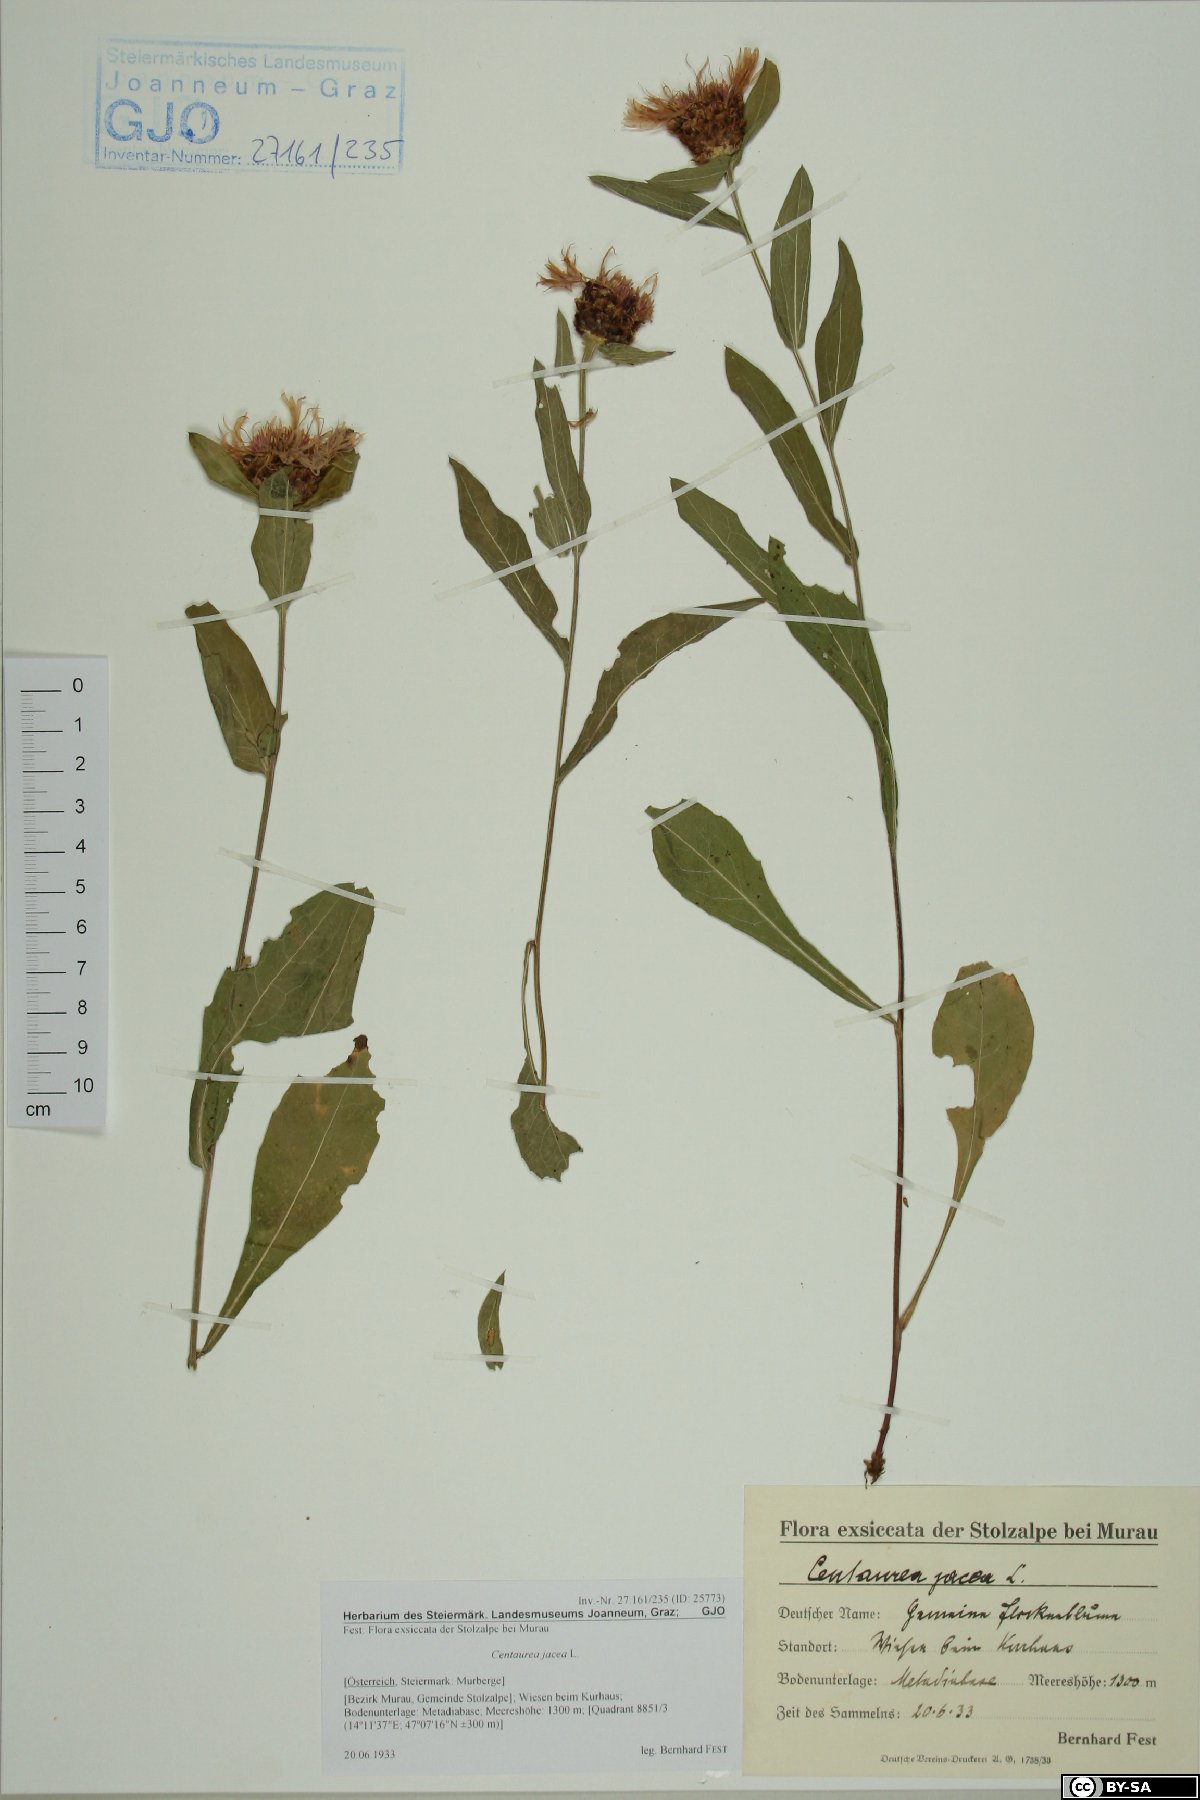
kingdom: Plantae
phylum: Tracheophyta
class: Magnoliopsida
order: Asterales
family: Asteraceae
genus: Centaurea
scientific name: Centaurea jacea
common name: Brown knapweed
